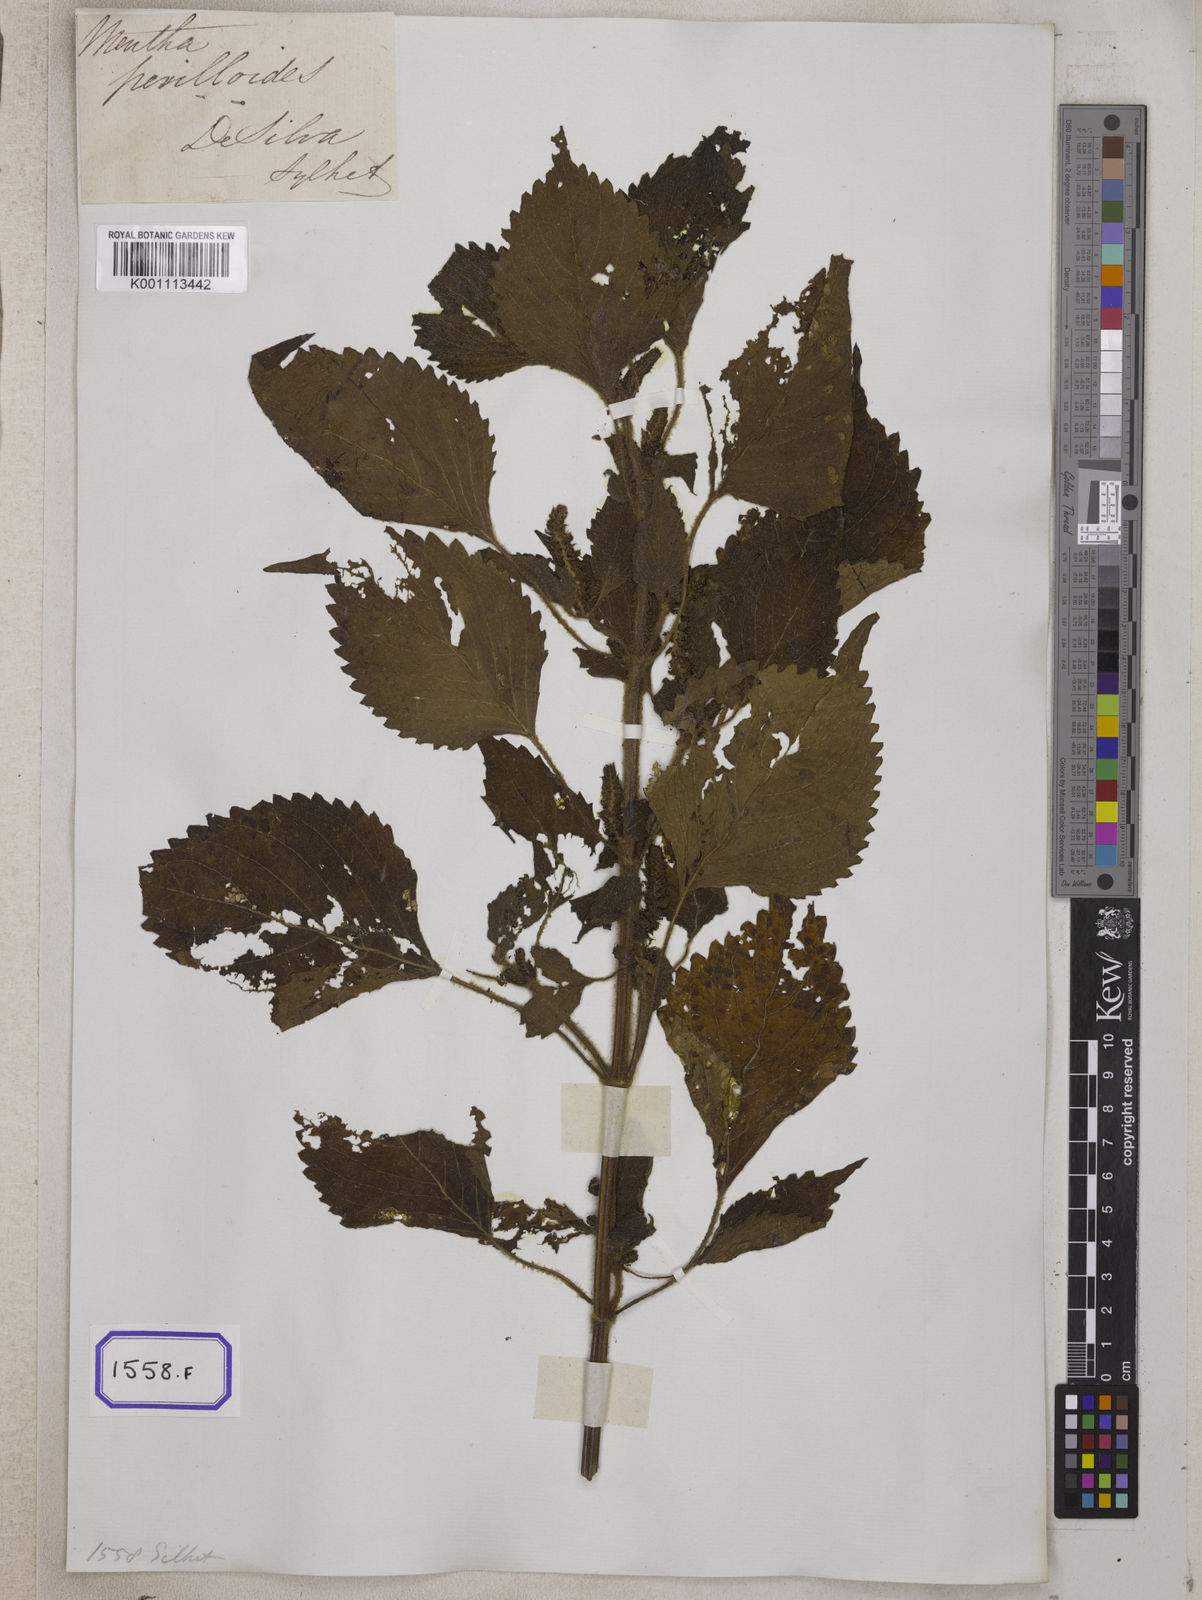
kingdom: Plantae
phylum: Tracheophyta
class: Magnoliopsida
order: Lamiales
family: Lamiaceae
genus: Perilla
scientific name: Perilla frutescens
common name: Perilla
